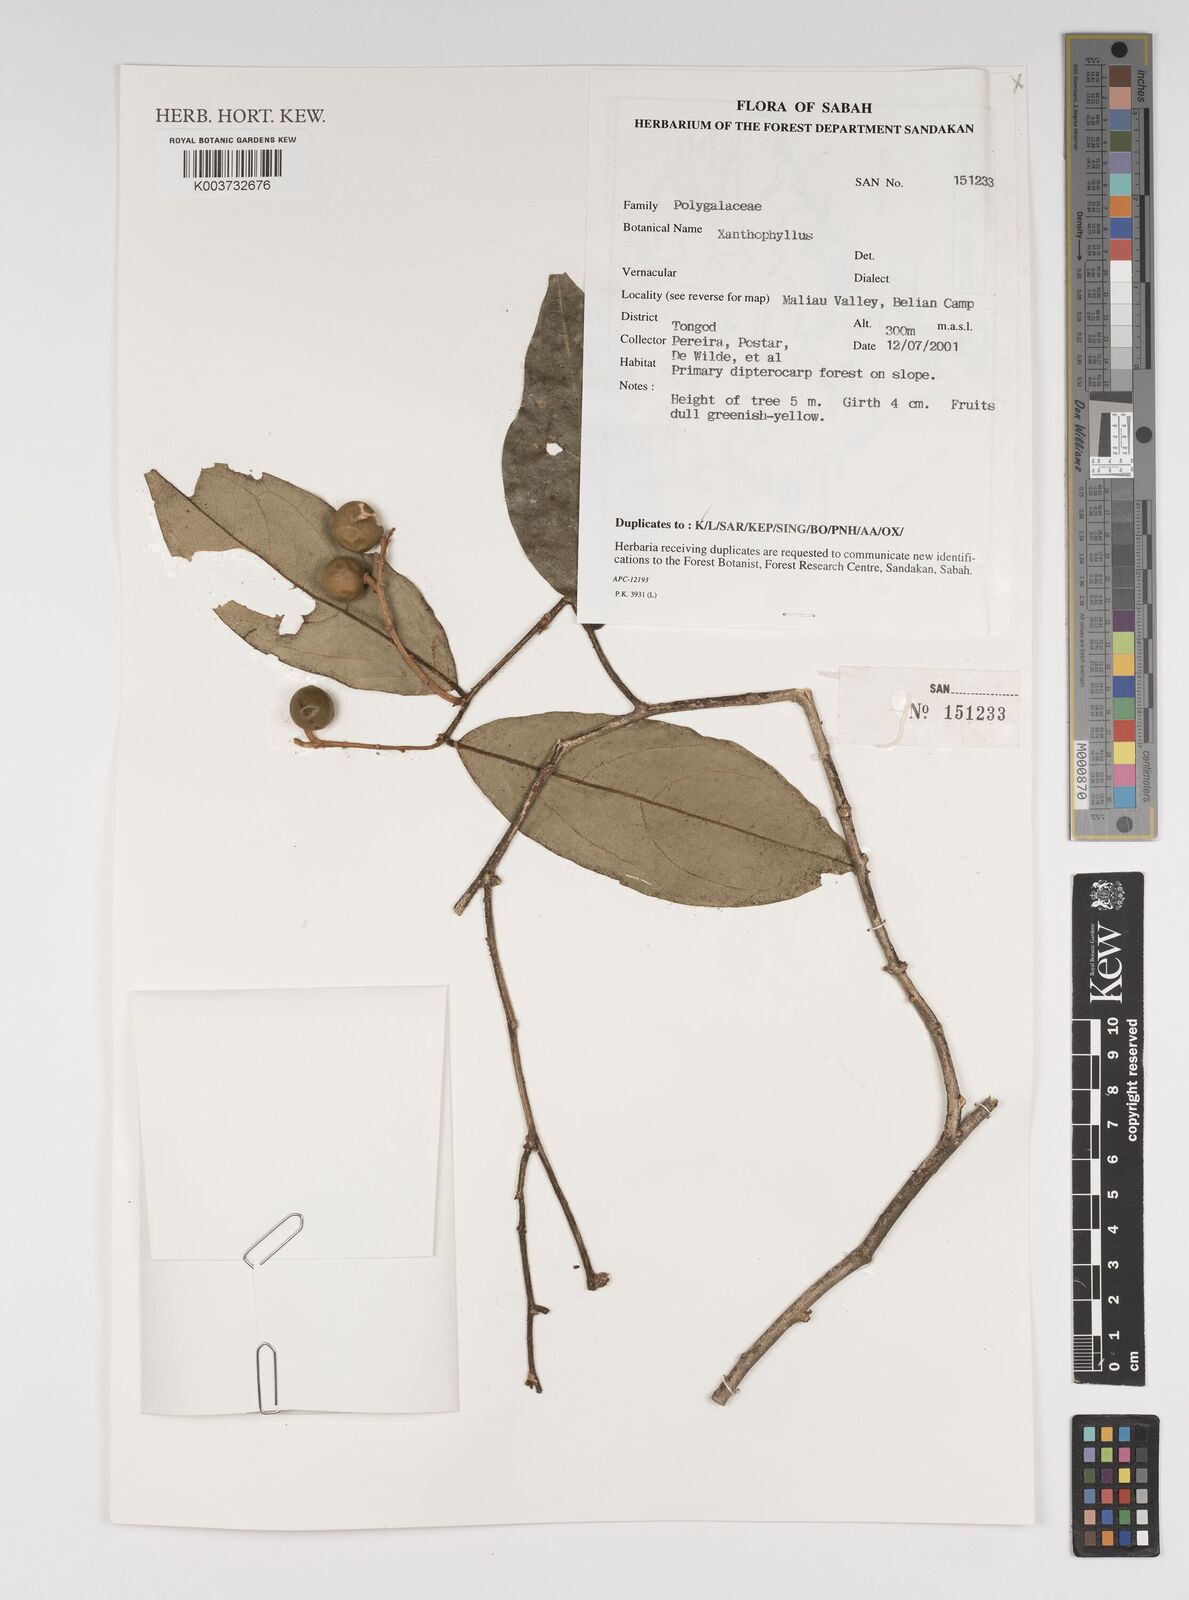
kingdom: Plantae
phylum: Tracheophyta
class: Magnoliopsida
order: Fabales
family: Polygalaceae
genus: Xanthophyllum
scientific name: Xanthophyllum
